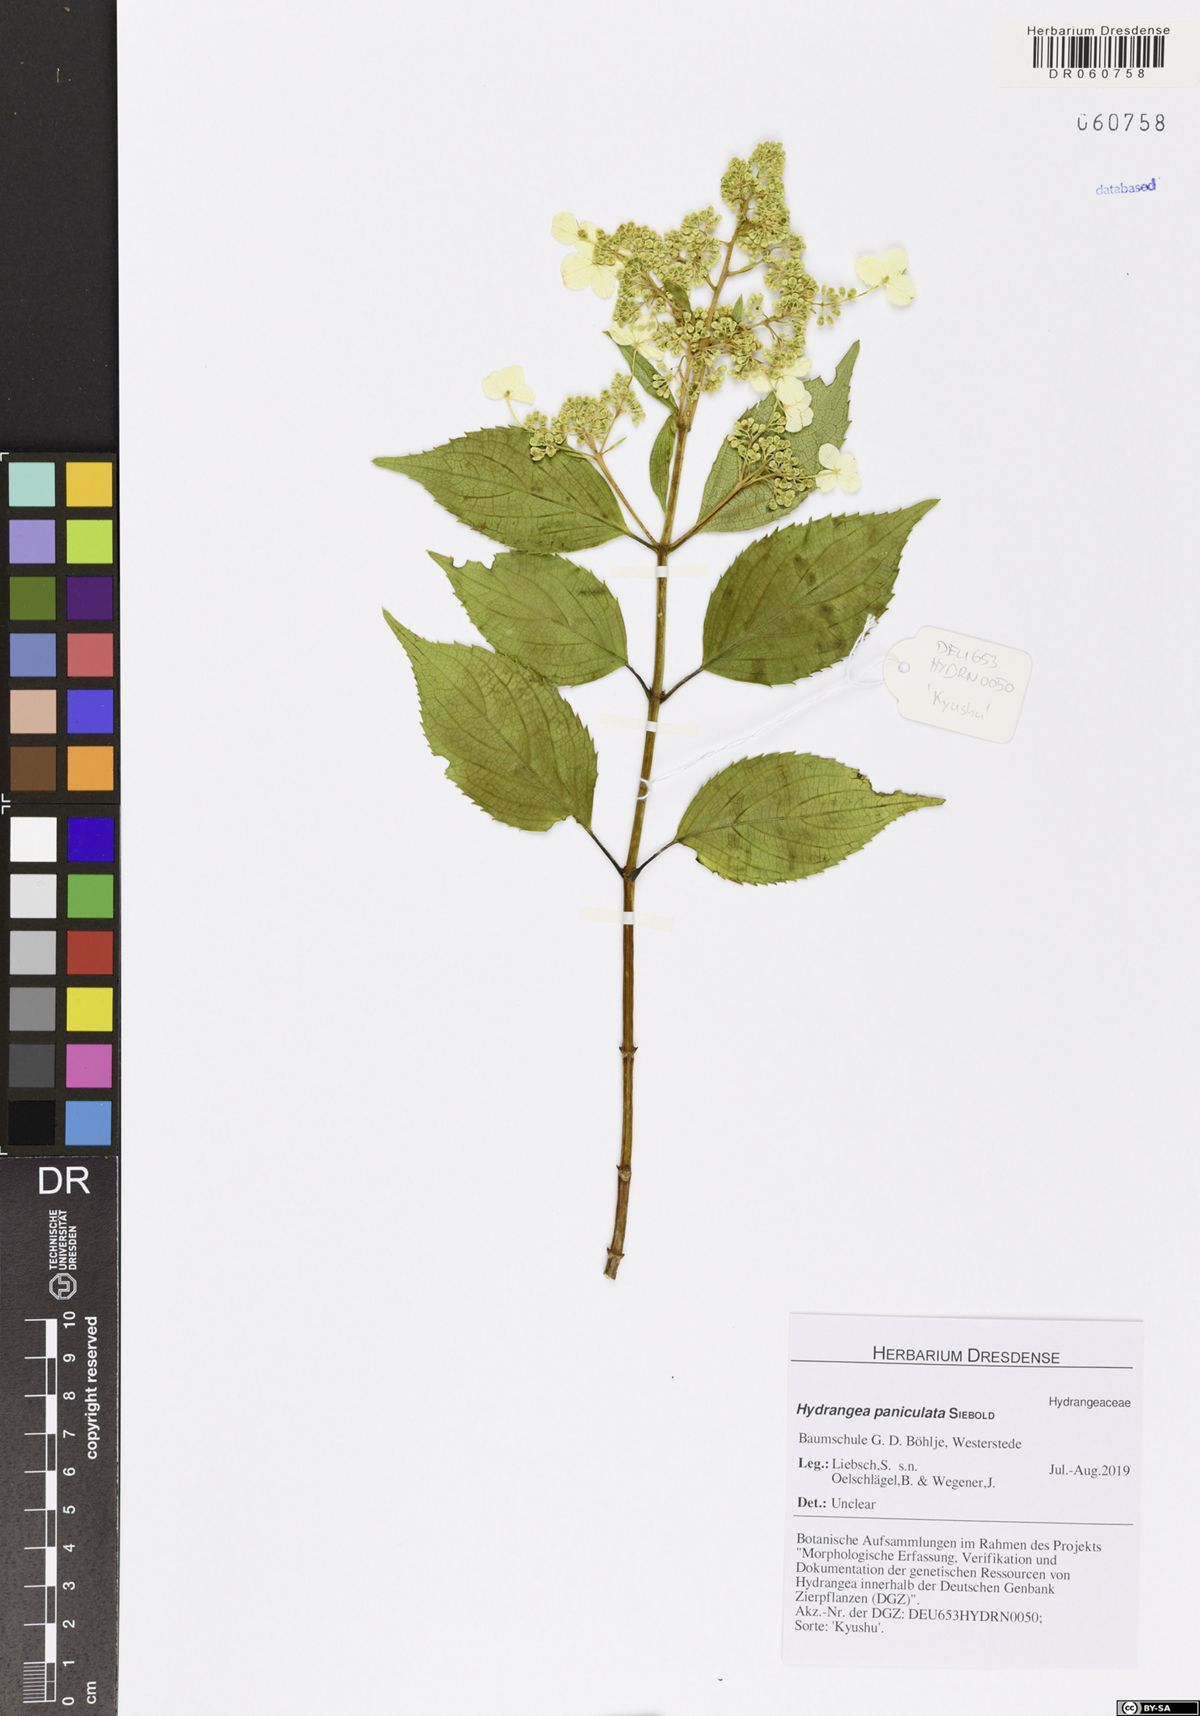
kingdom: Plantae
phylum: Tracheophyta
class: Magnoliopsida
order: Cornales
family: Hydrangeaceae
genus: Hydrangea
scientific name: Hydrangea paniculata
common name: Panicled hydrangea
